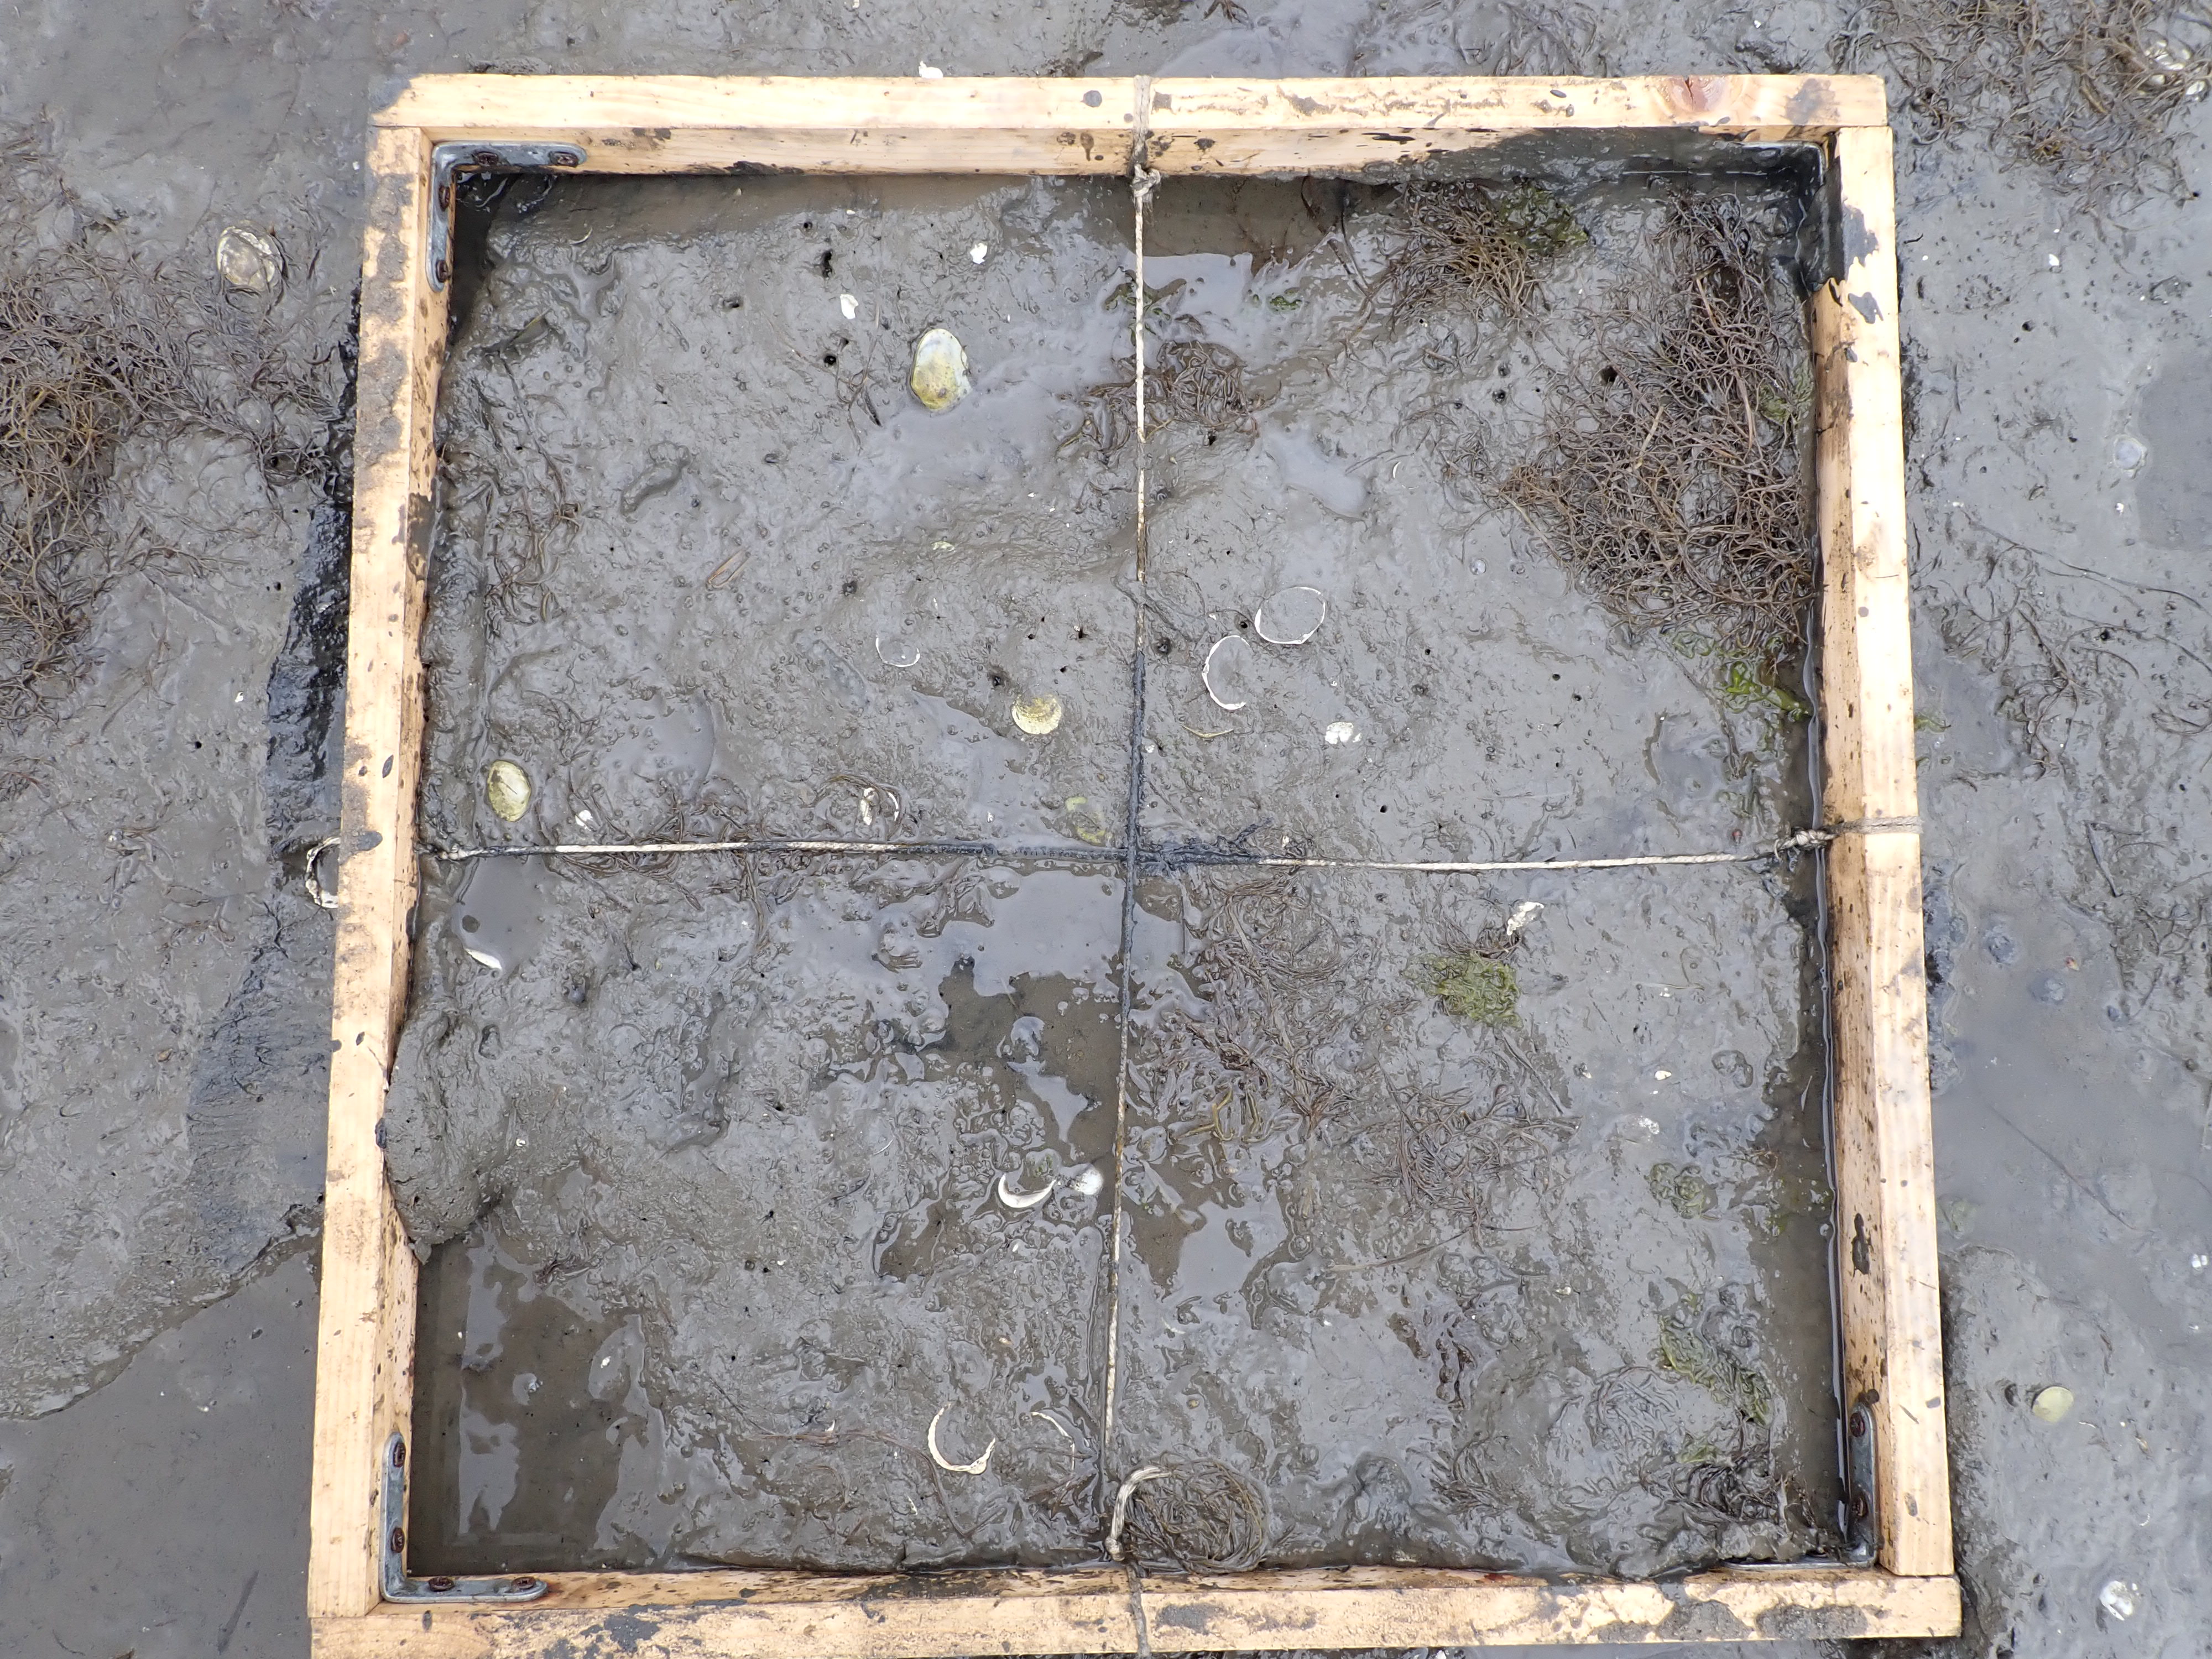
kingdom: Plantae
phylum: Chlorophyta
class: Ulvophyceae
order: Ulvales
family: Ulvaceae
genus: Ulva
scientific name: Ulva
